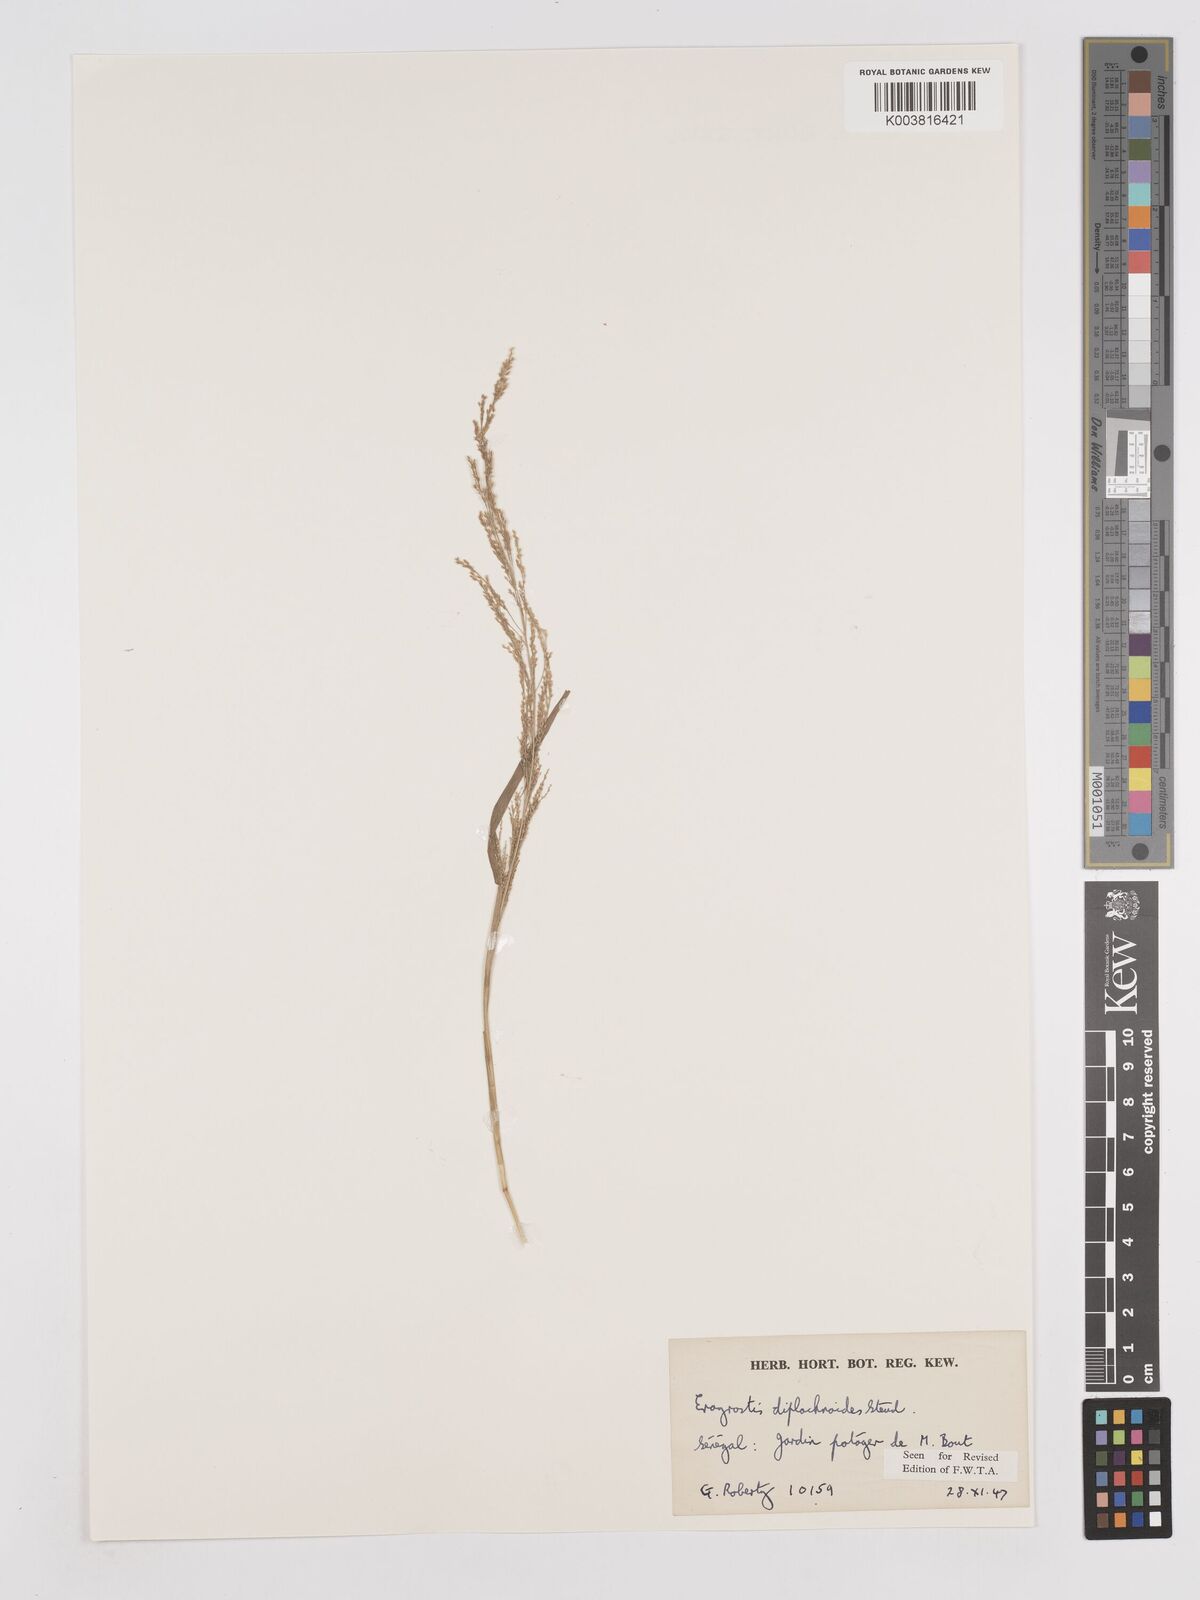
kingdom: Plantae
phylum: Tracheophyta
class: Liliopsida
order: Poales
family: Poaceae
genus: Eragrostis
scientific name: Eragrostis japonica
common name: Pond lovegrass
